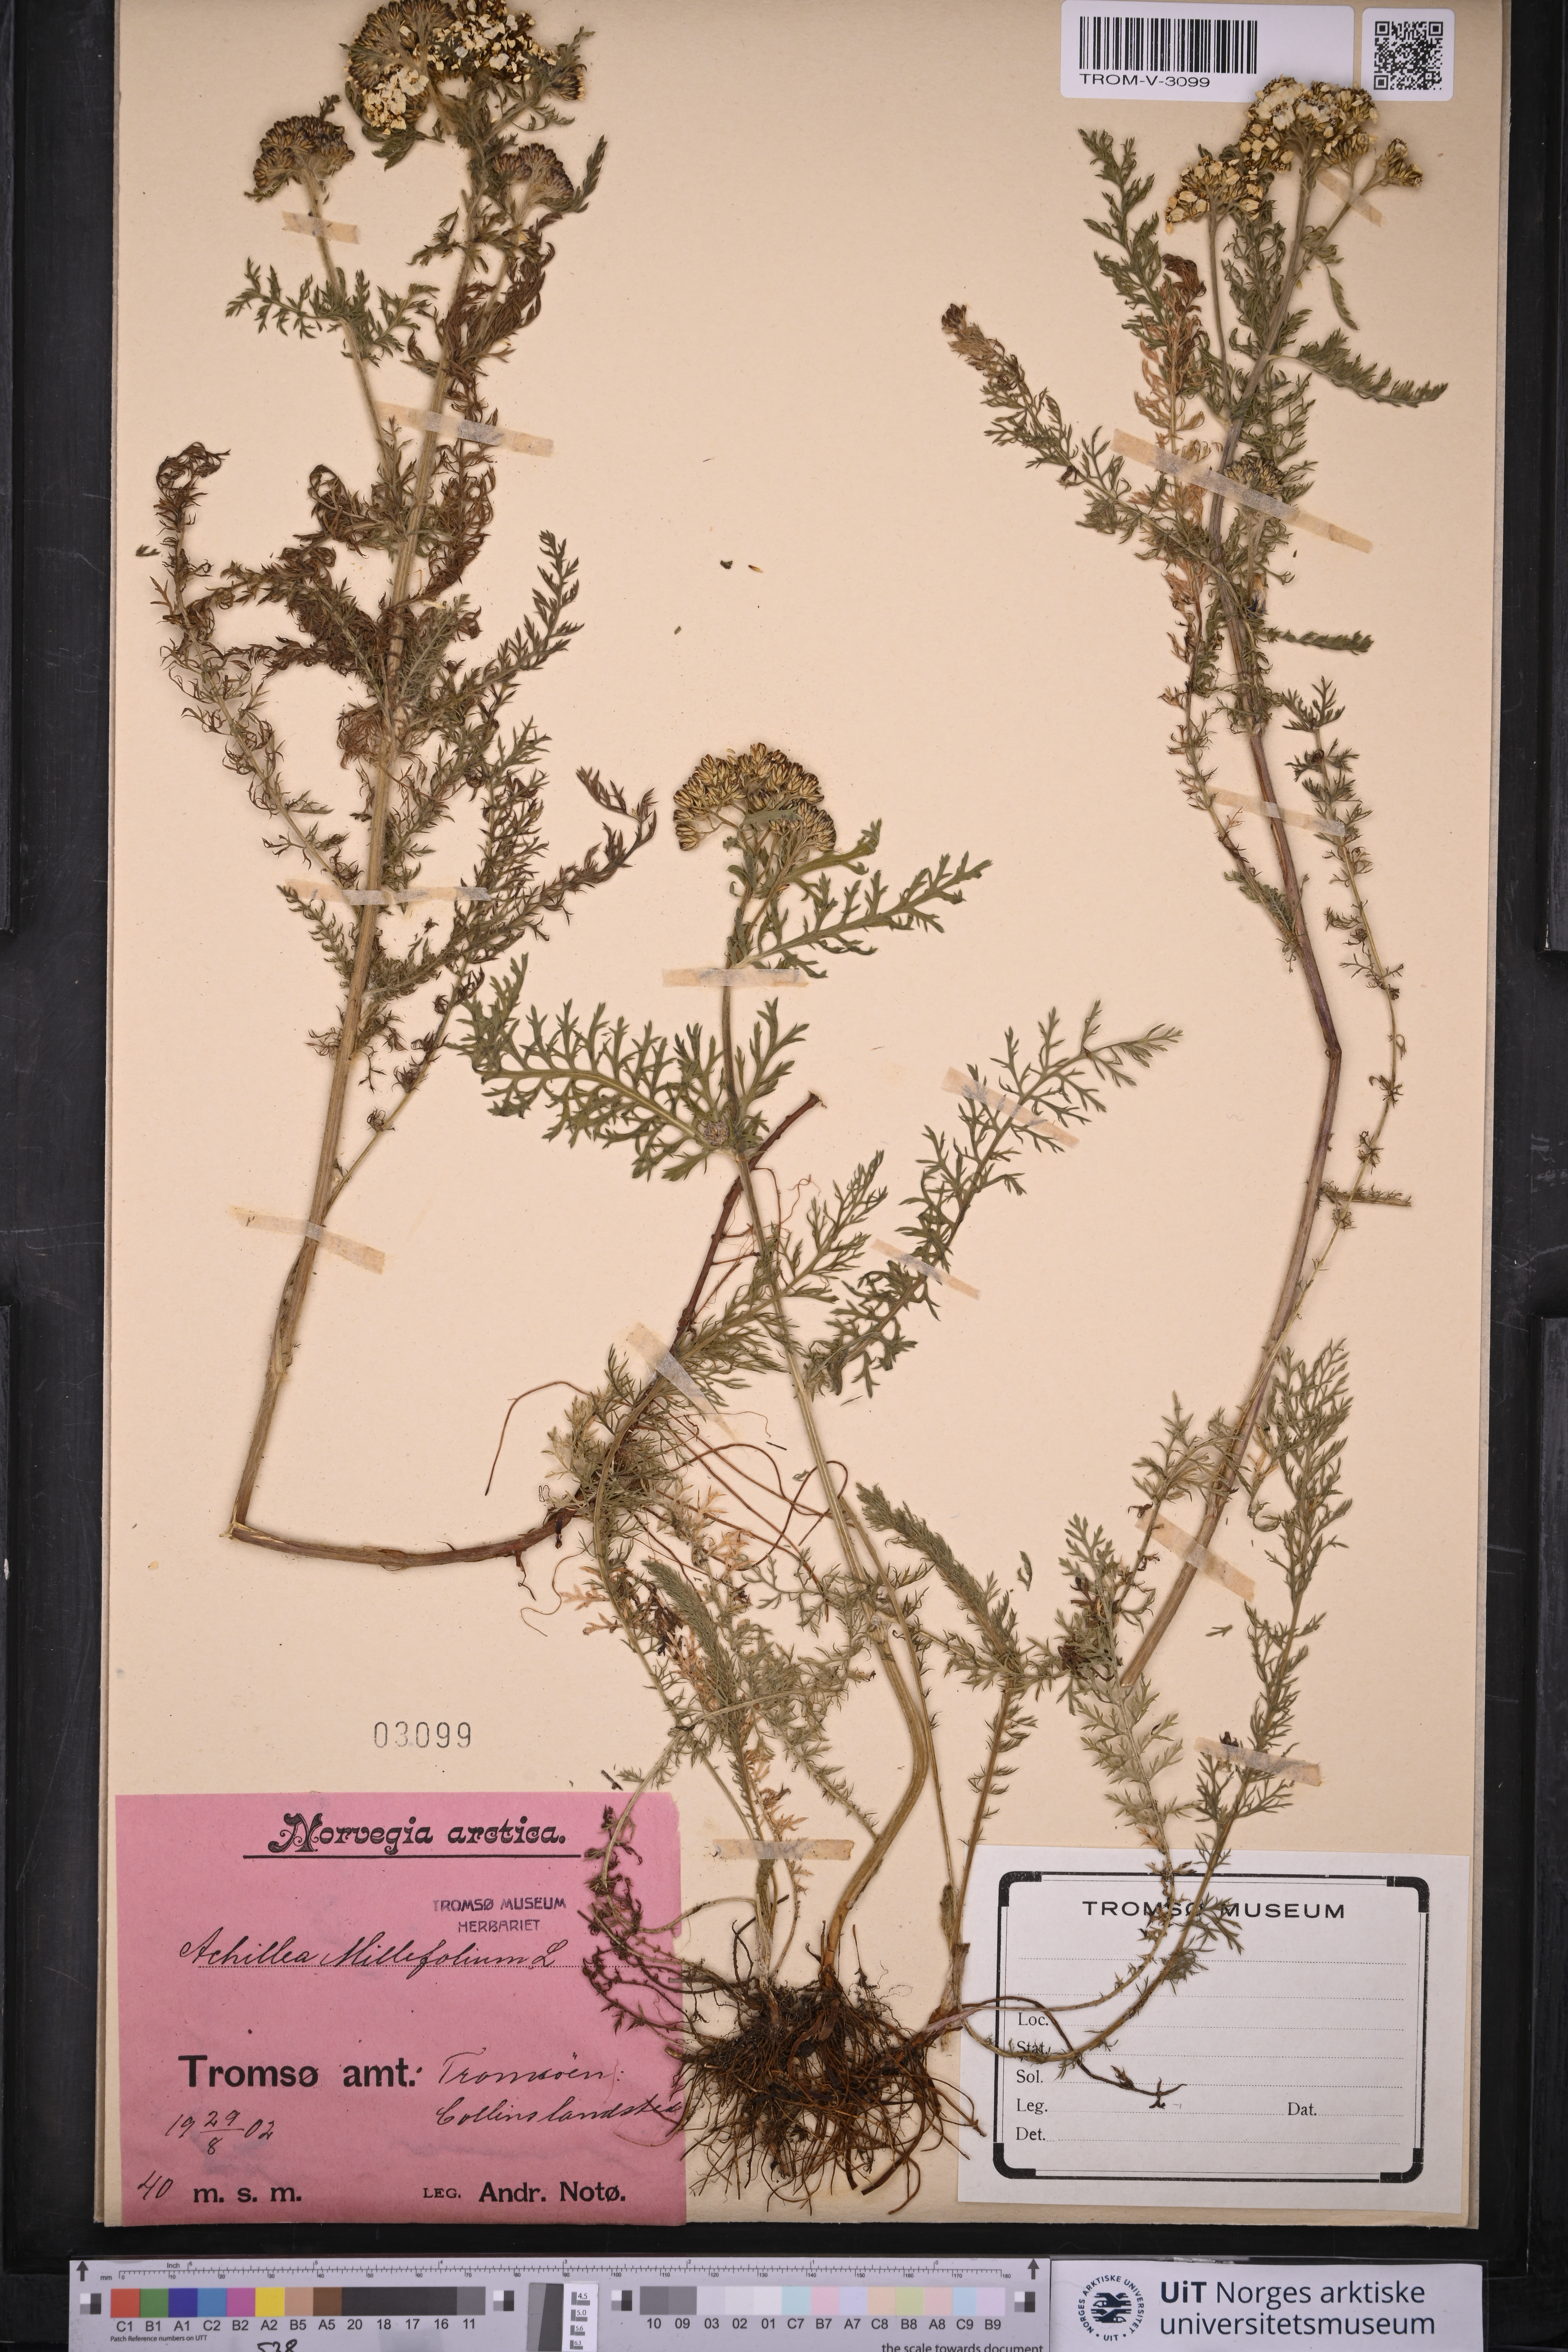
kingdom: Plantae
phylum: Tracheophyta
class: Magnoliopsida
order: Asterales
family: Asteraceae
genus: Achillea
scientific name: Achillea millefolium
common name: Yarrow
